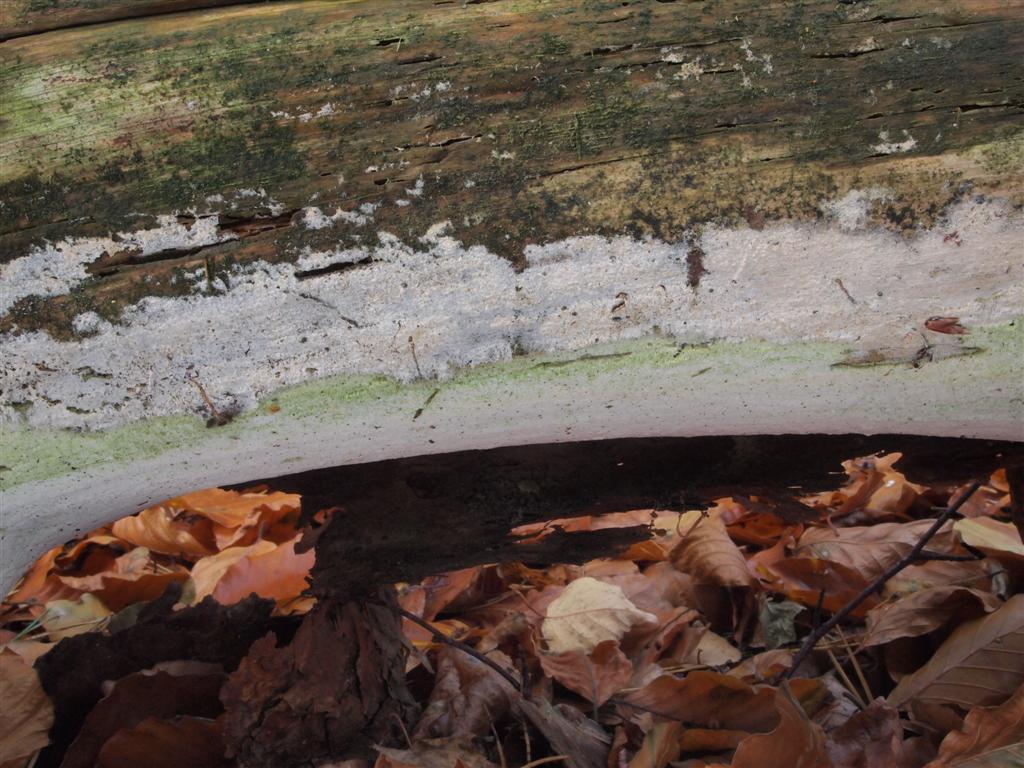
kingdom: Fungi
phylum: Basidiomycota
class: Agaricomycetes
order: Cantharellales
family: Botryobasidiaceae
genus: Botryobasidium
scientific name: Botryobasidium subcoronatum
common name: almindelig spindhinde
